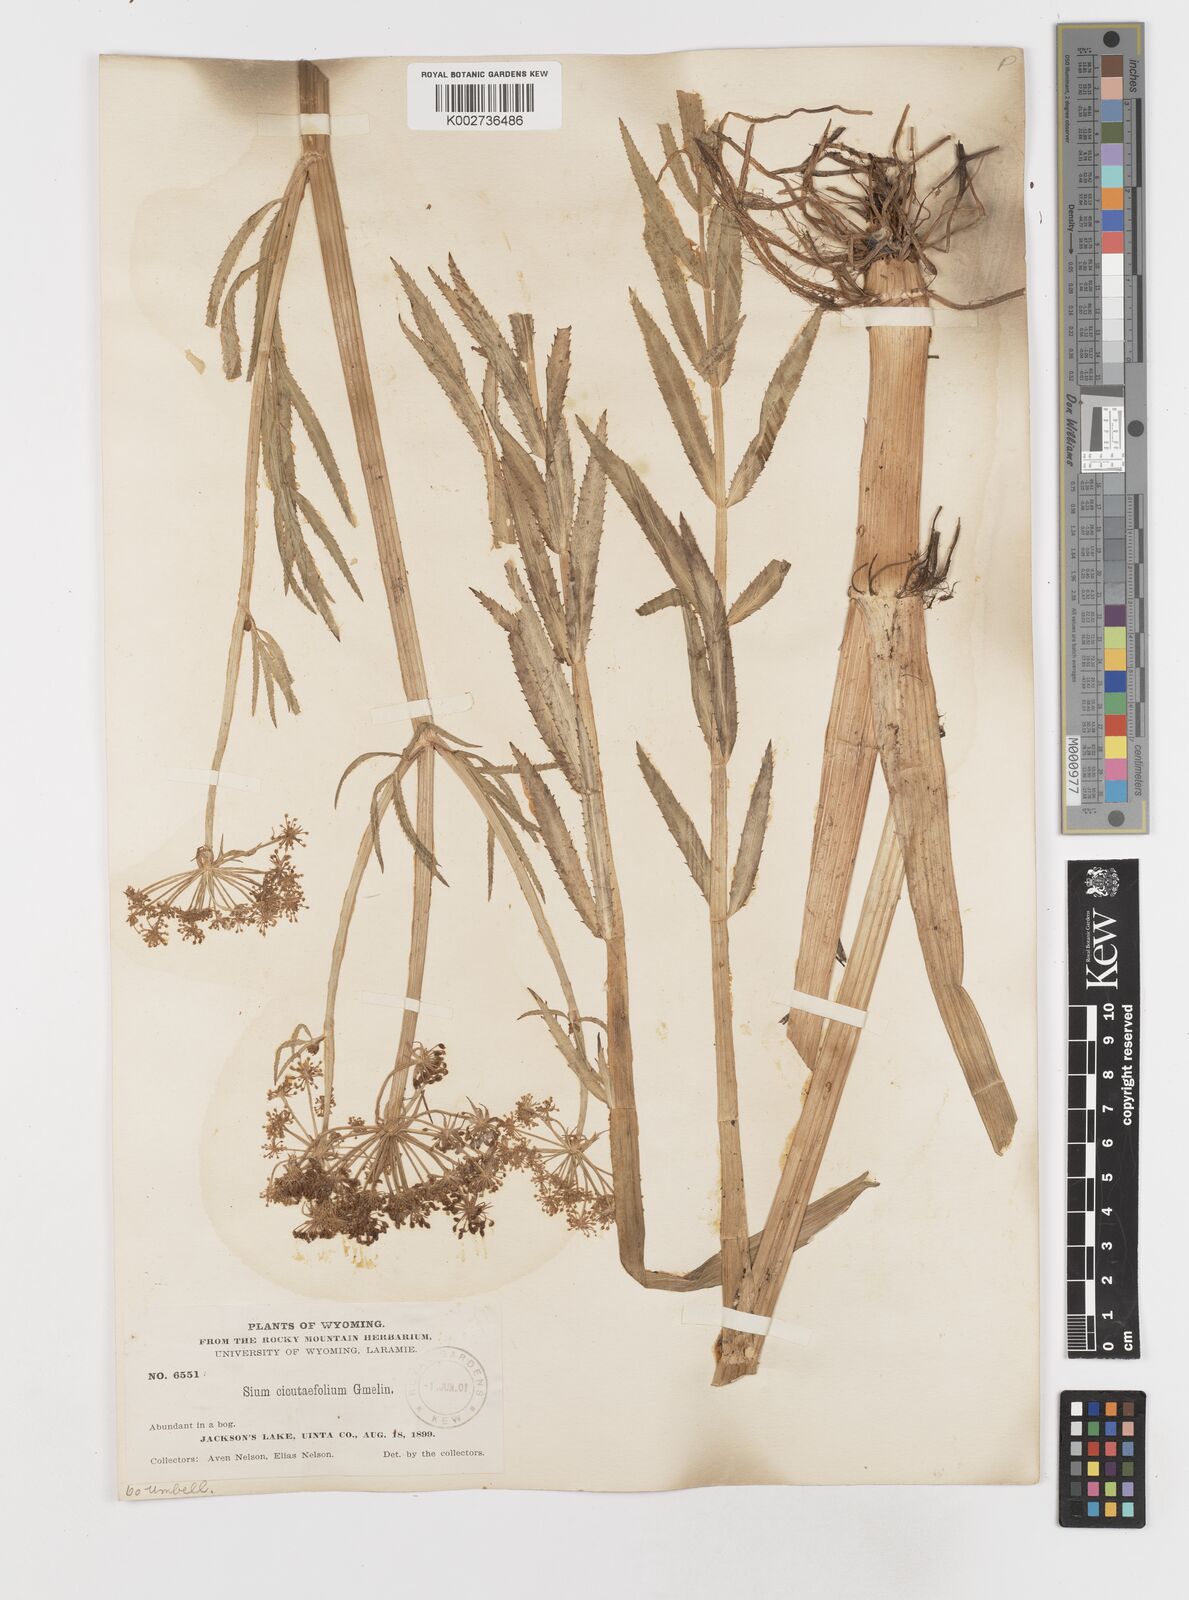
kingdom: Plantae
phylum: Tracheophyta
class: Magnoliopsida
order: Apiales
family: Apiaceae
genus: Sium
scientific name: Sium suave
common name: Hemlock water-parsnip
